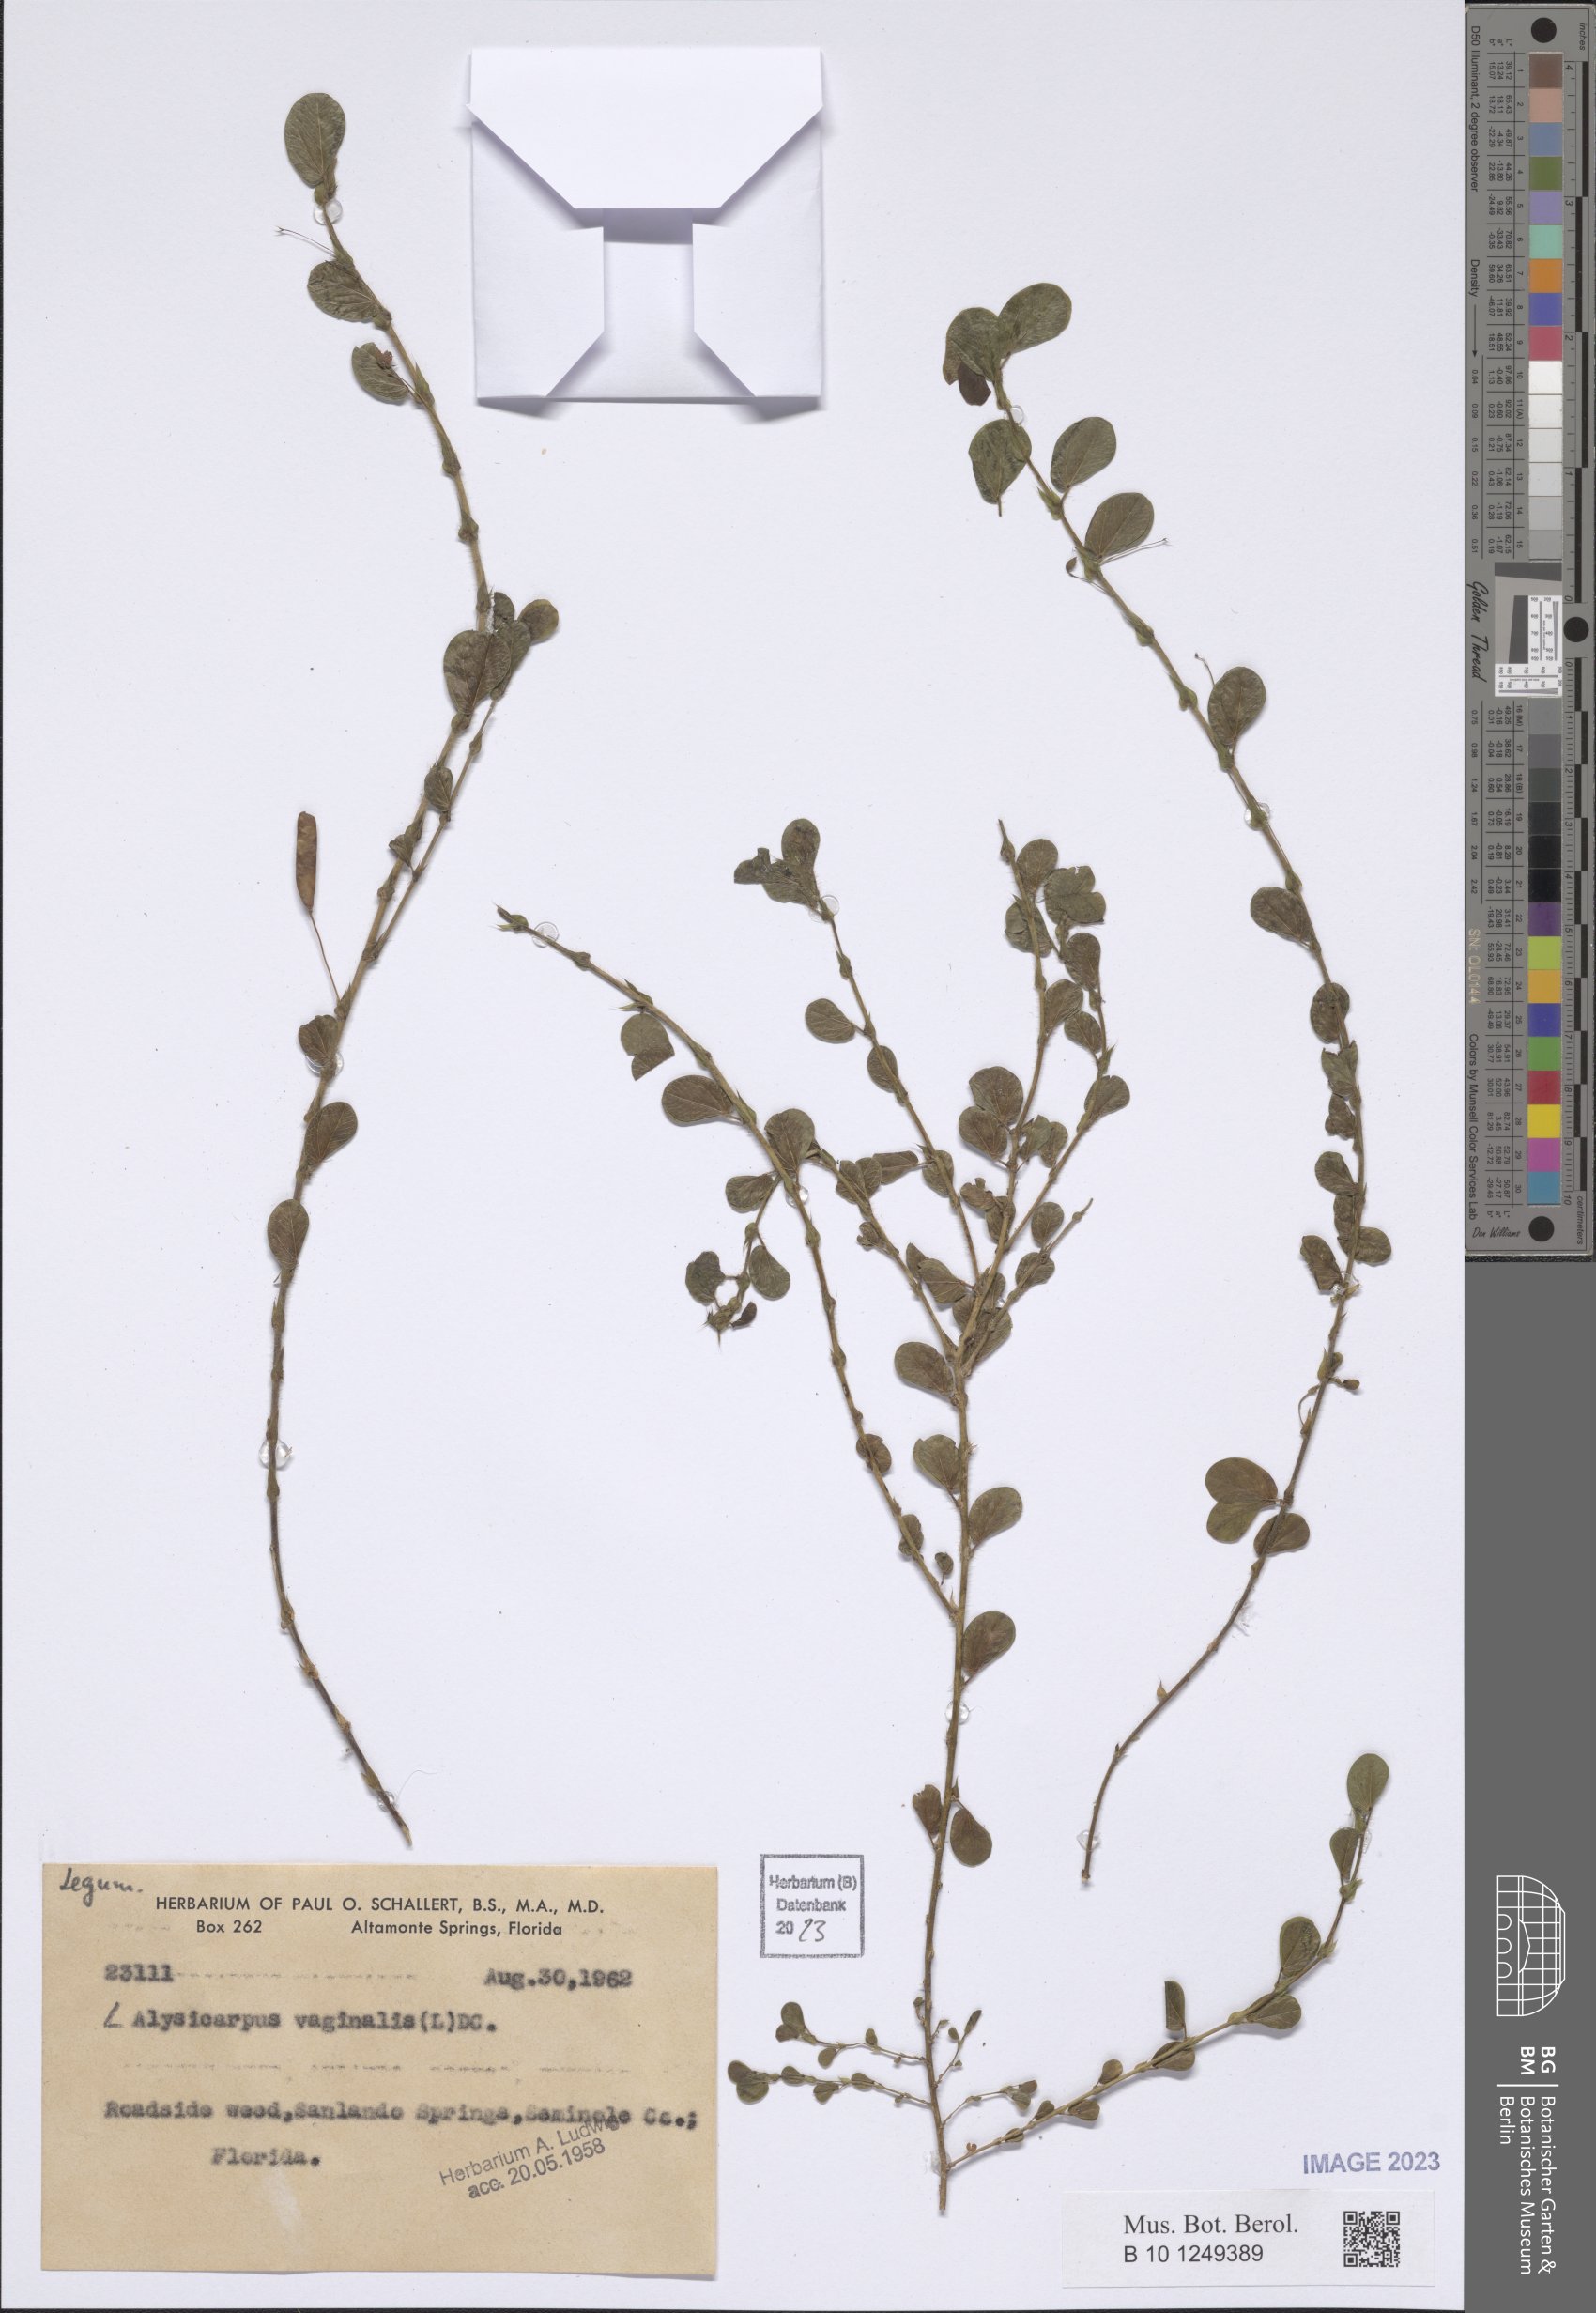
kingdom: Plantae
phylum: Tracheophyta
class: Magnoliopsida
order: Fabales
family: Fabaceae
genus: Alysicarpus
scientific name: Alysicarpus vaginalis
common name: White moneywort
